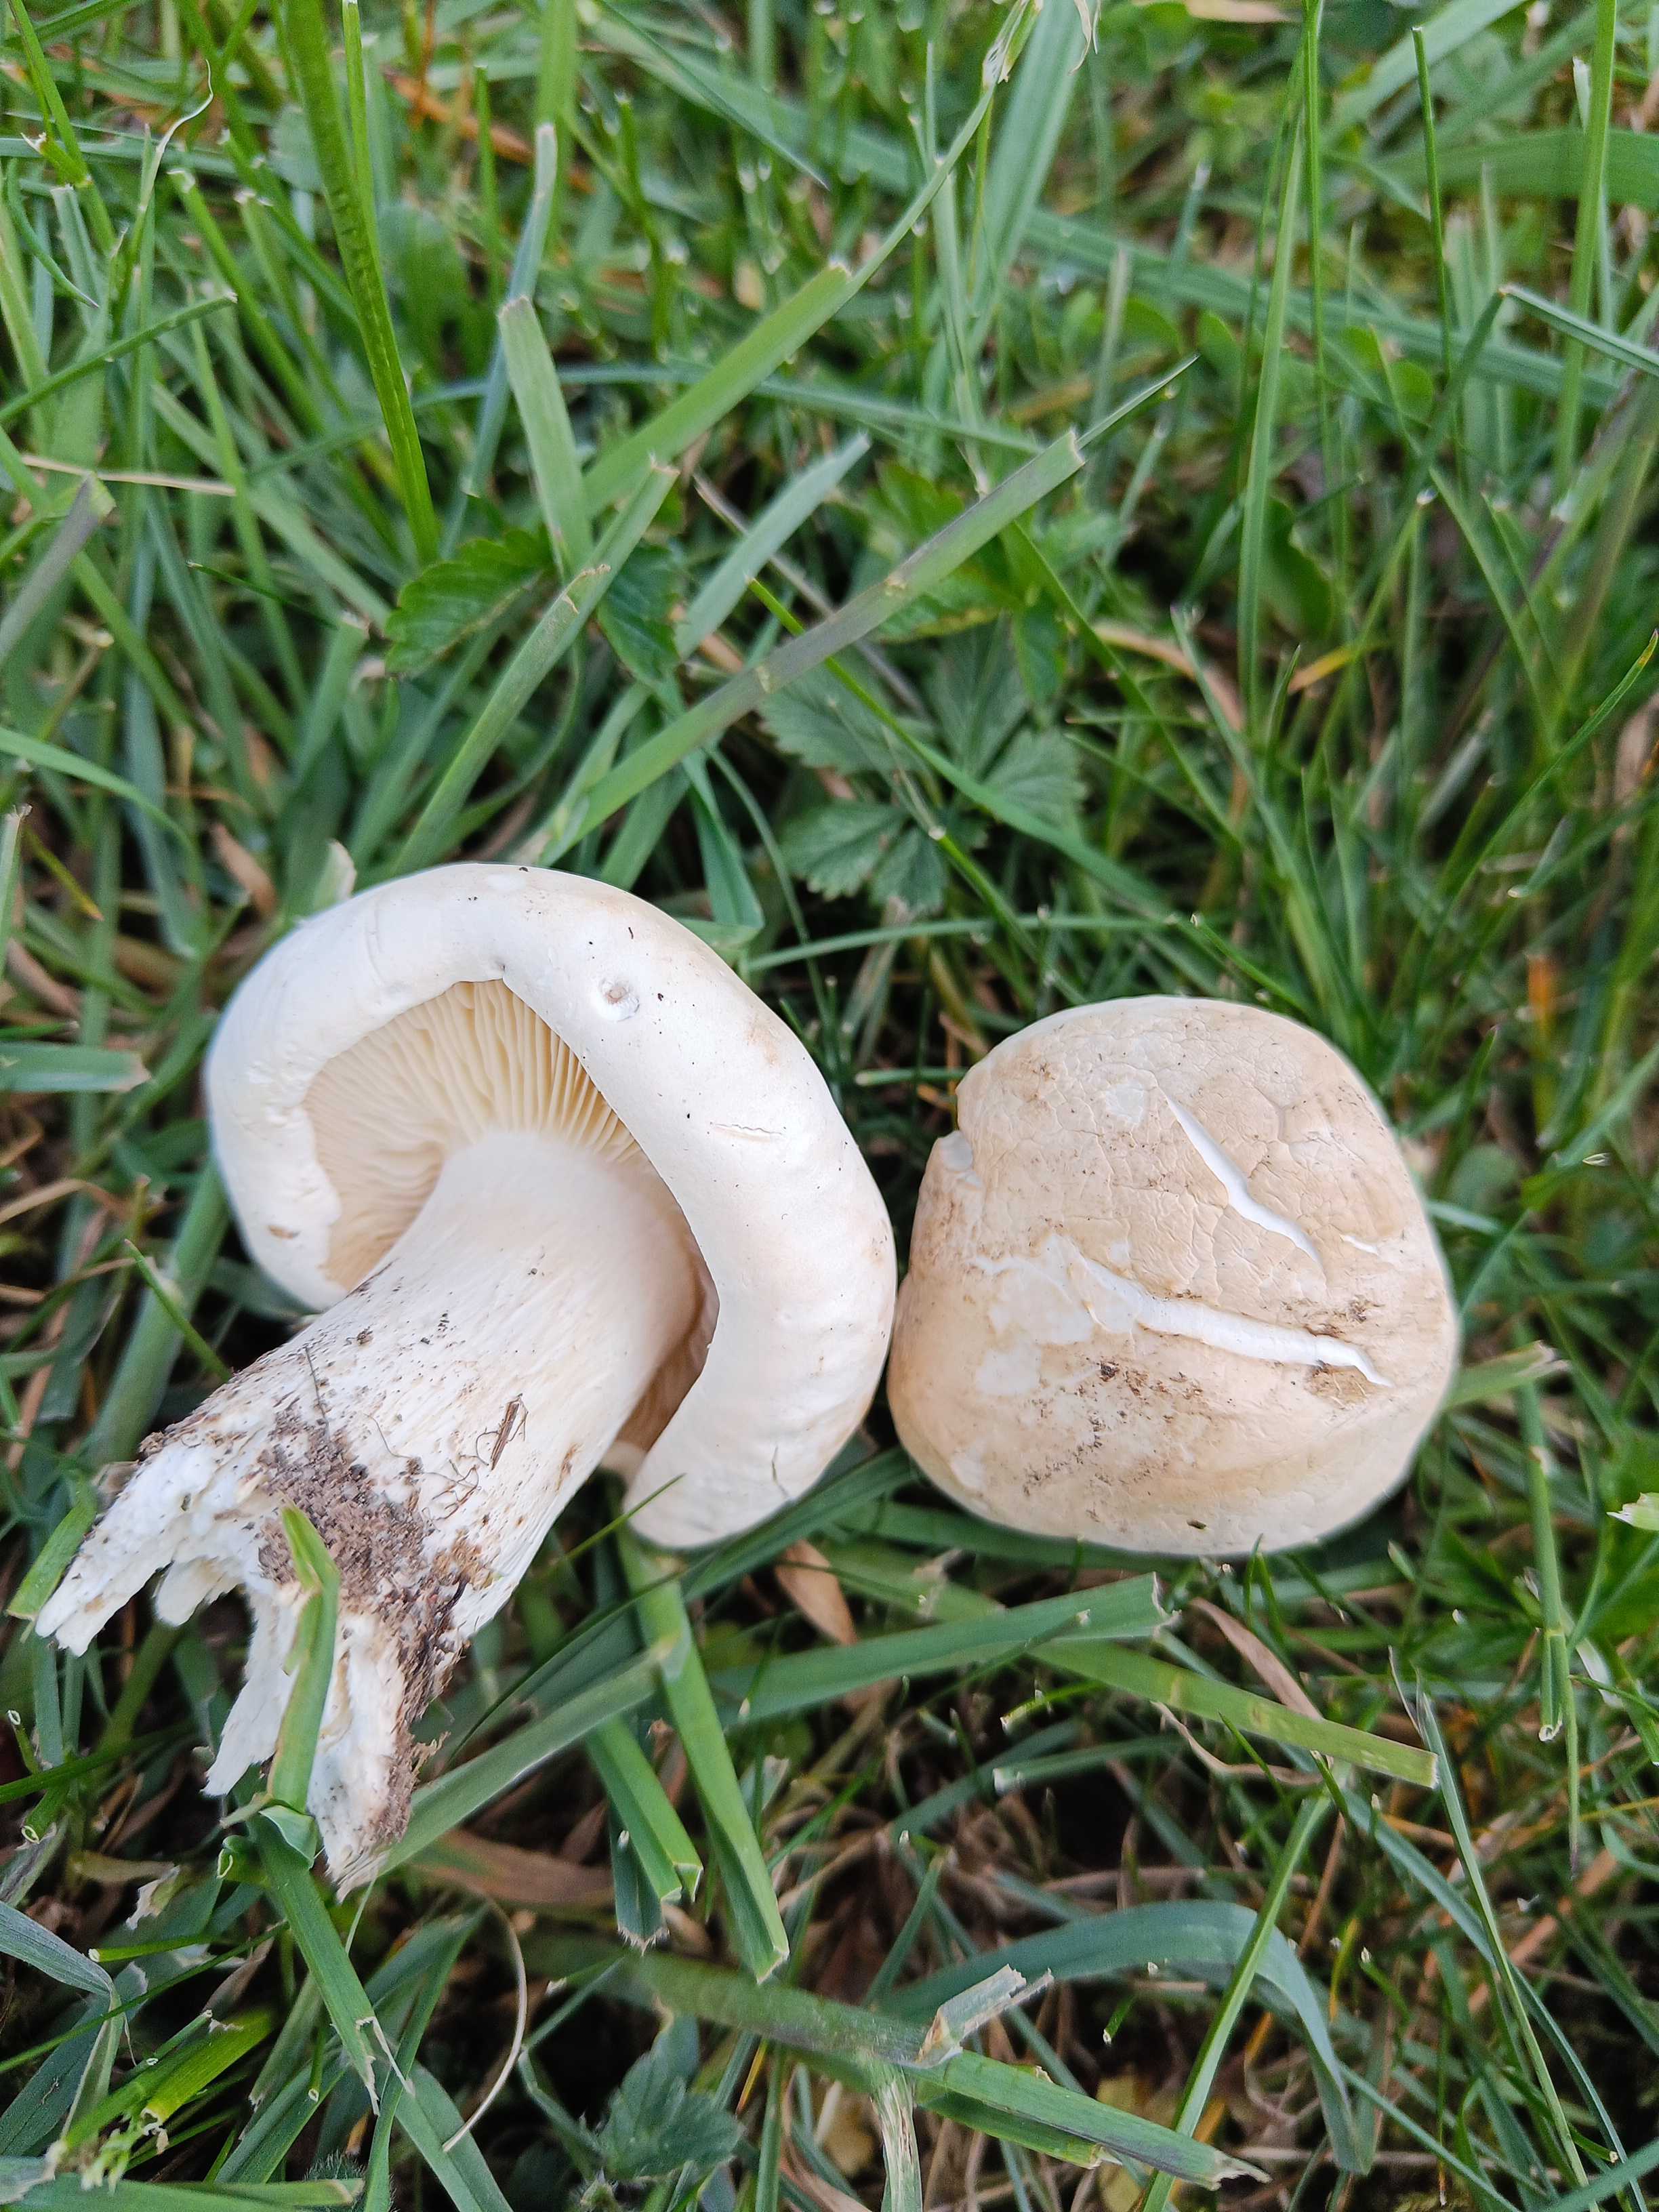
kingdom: Fungi
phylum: Basidiomycota
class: Agaricomycetes
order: Agaricales
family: Lyophyllaceae
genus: Calocybe
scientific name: Calocybe gambosa
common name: vårmusseron
